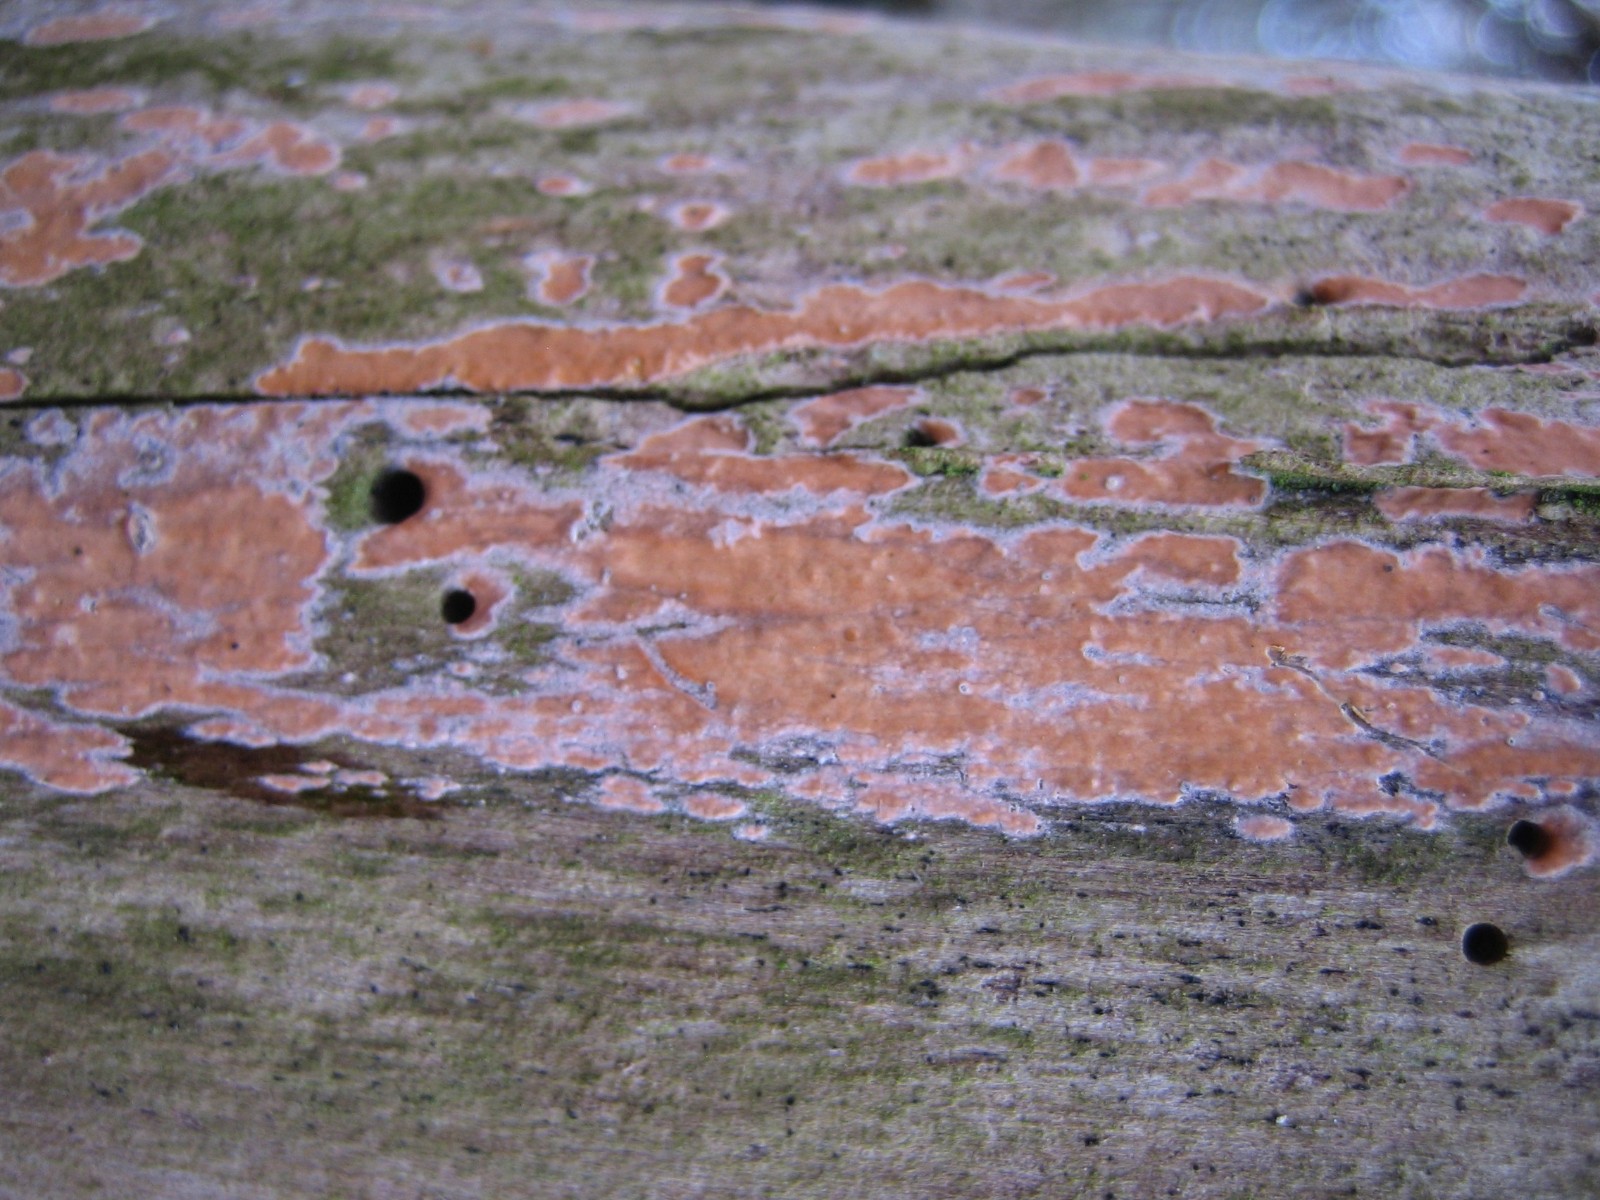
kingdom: Fungi
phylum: Basidiomycota
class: Agaricomycetes
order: Russulales
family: Peniophoraceae
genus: Peniophora
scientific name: Peniophora incarnata
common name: laksefarvet voksskind
